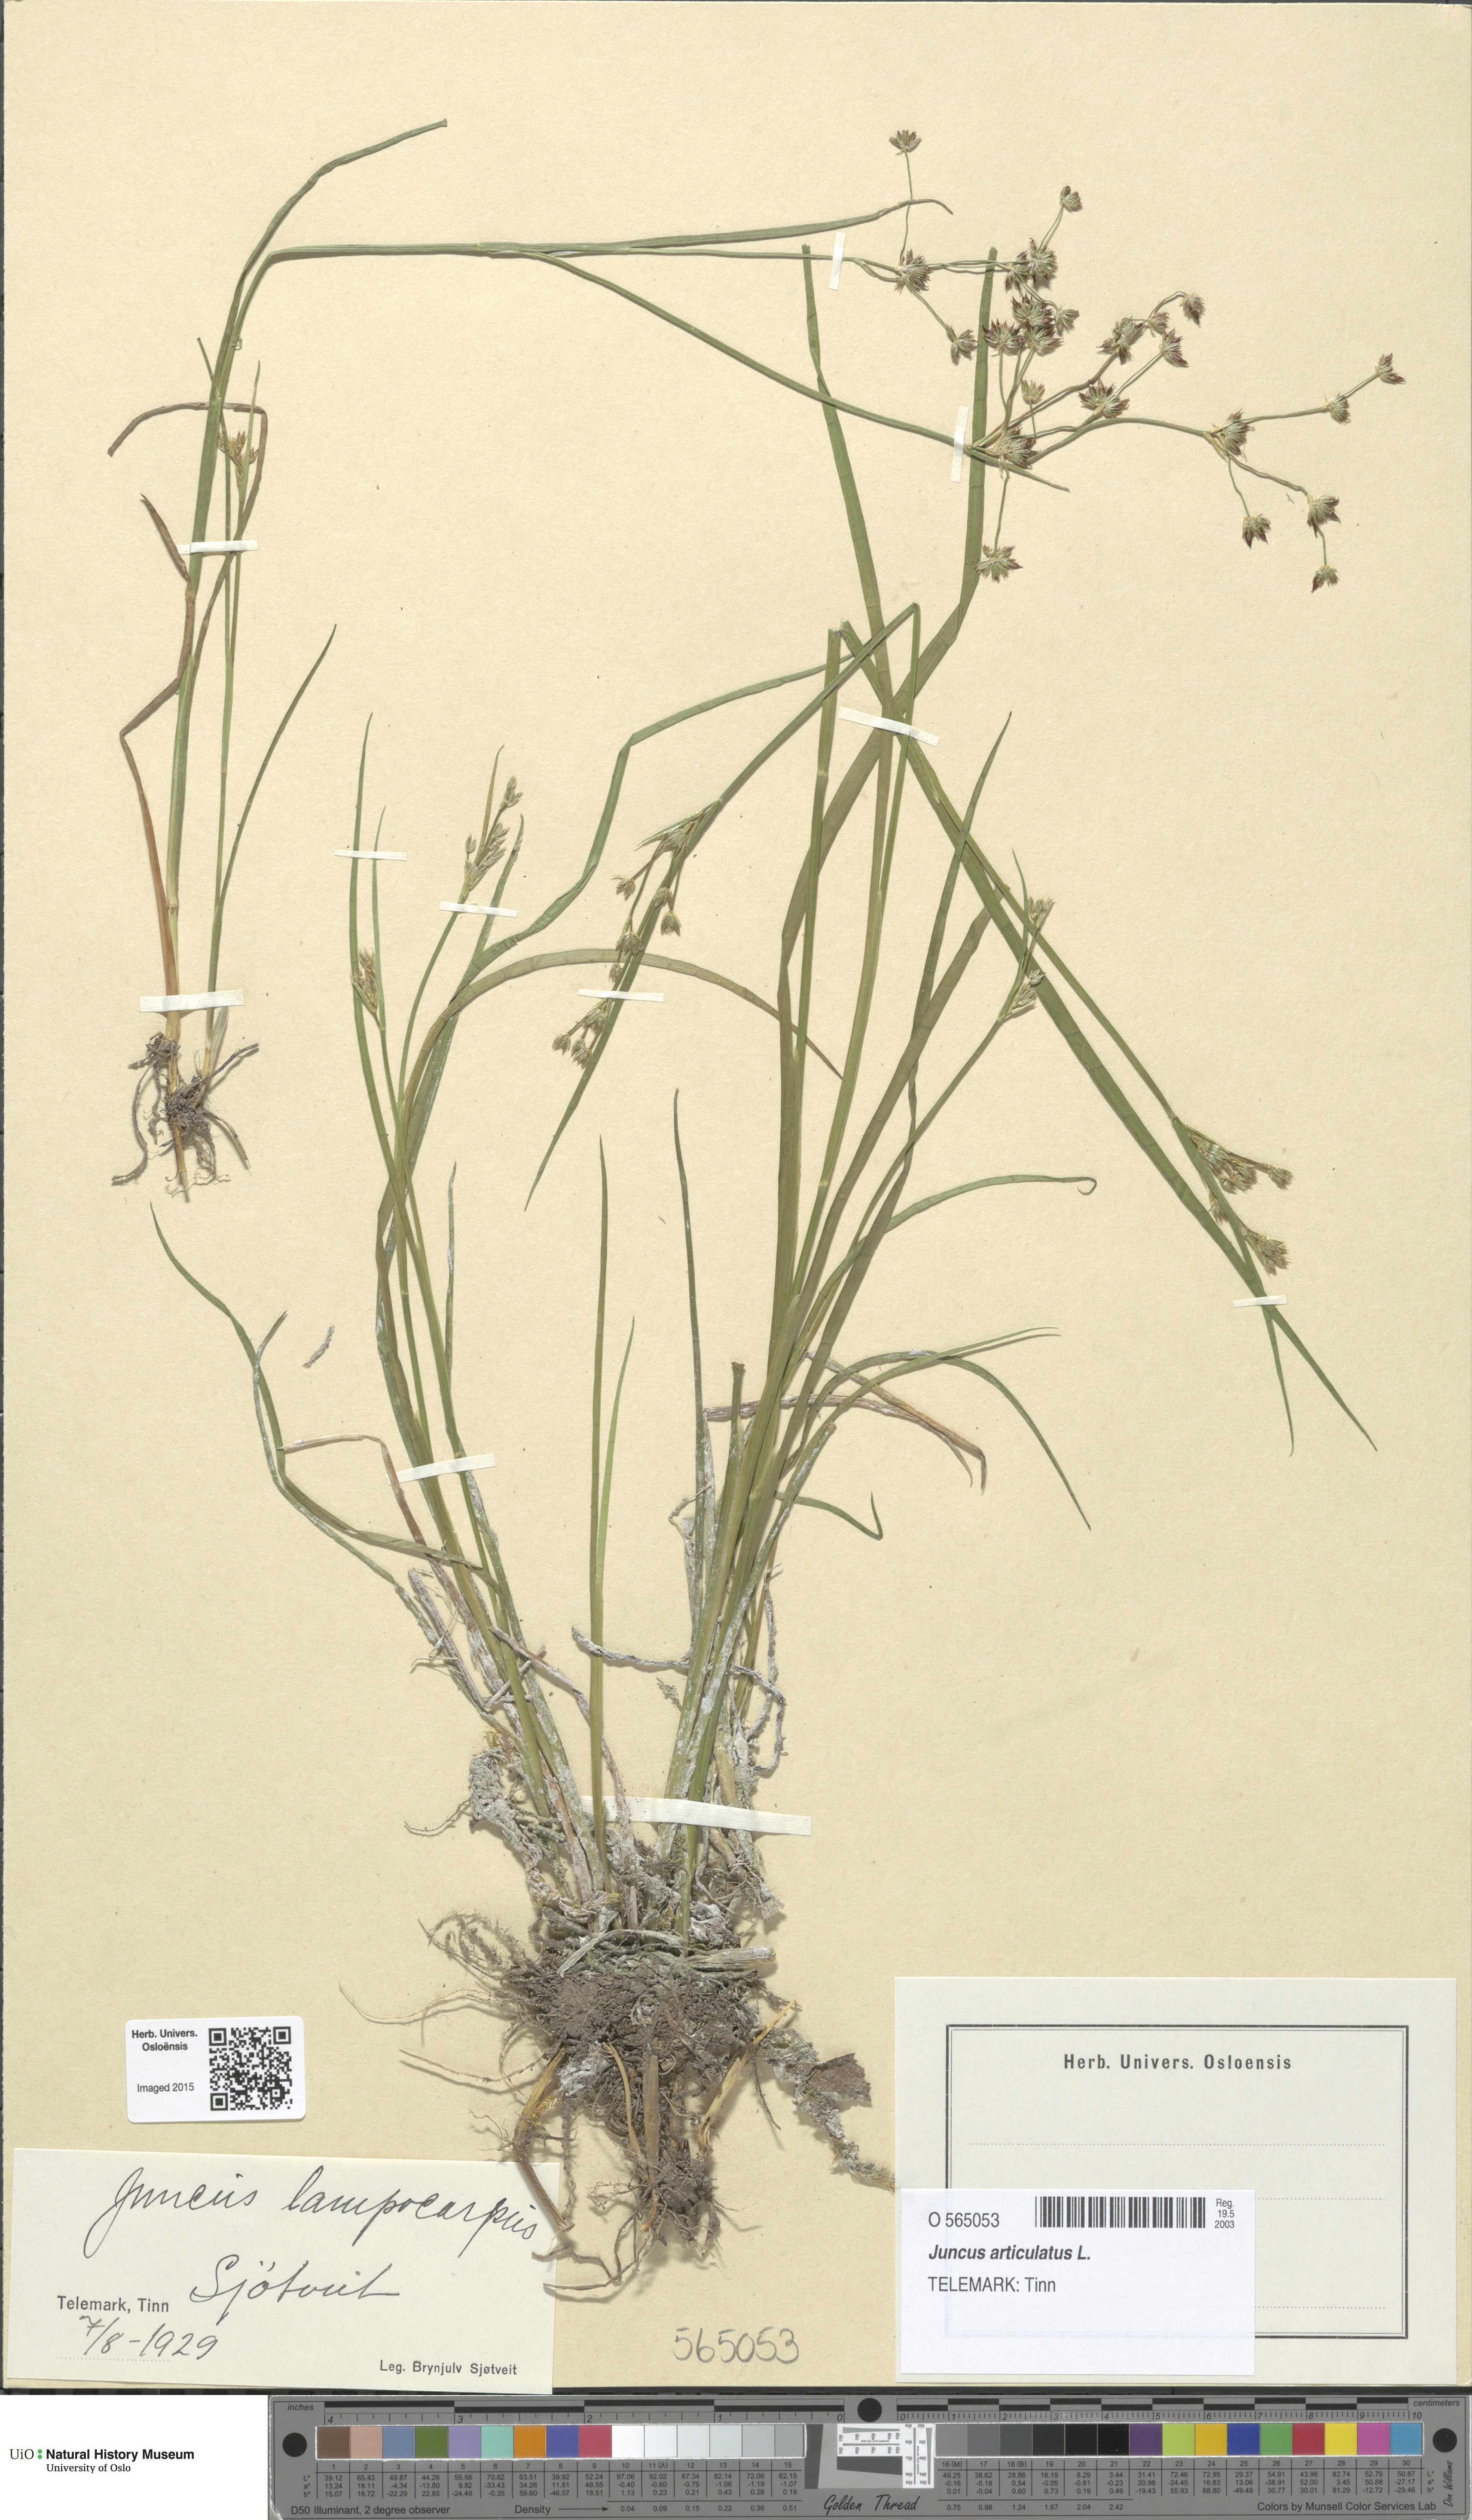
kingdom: Plantae
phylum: Tracheophyta
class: Liliopsida
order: Poales
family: Juncaceae
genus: Juncus
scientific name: Juncus articulatus
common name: Jointed rush
